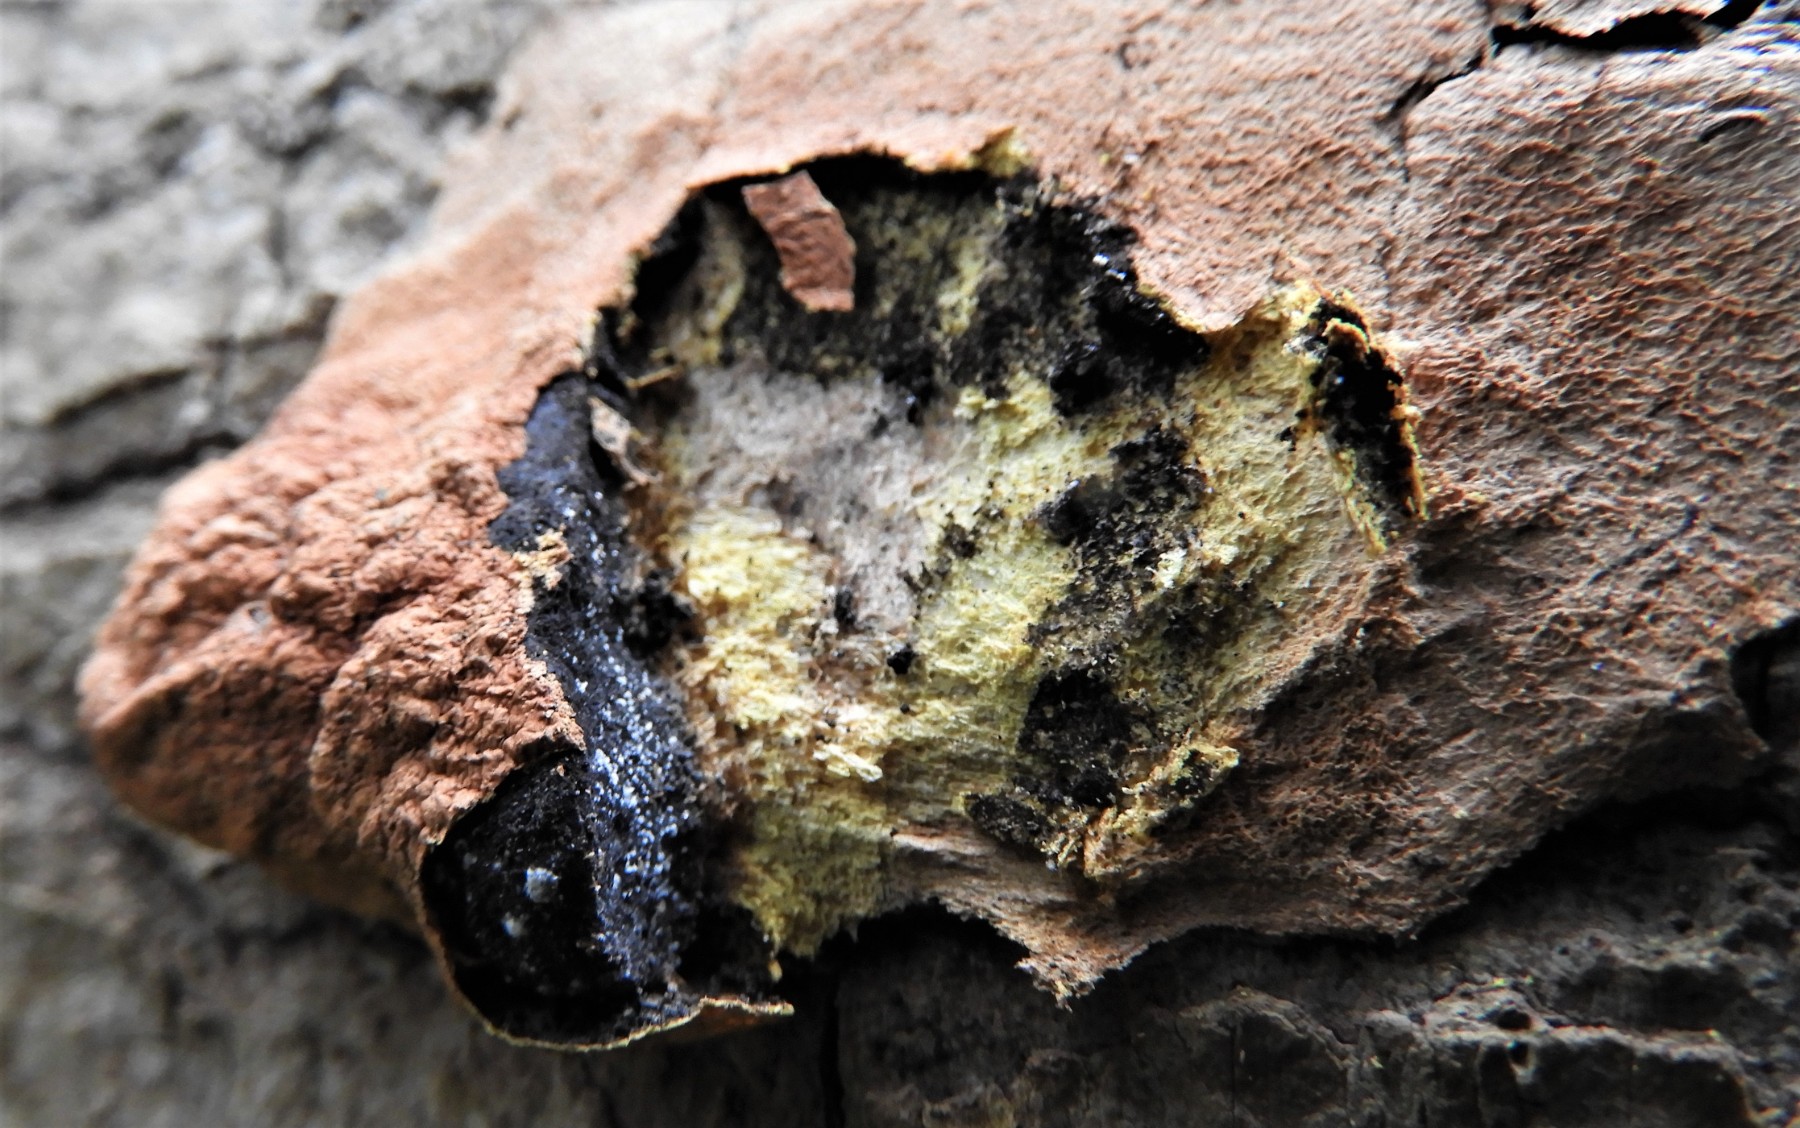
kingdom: Protozoa
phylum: Mycetozoa
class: Myxomycetes
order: Physarales
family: Physaraceae
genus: Fuligo
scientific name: Fuligo leviderma
